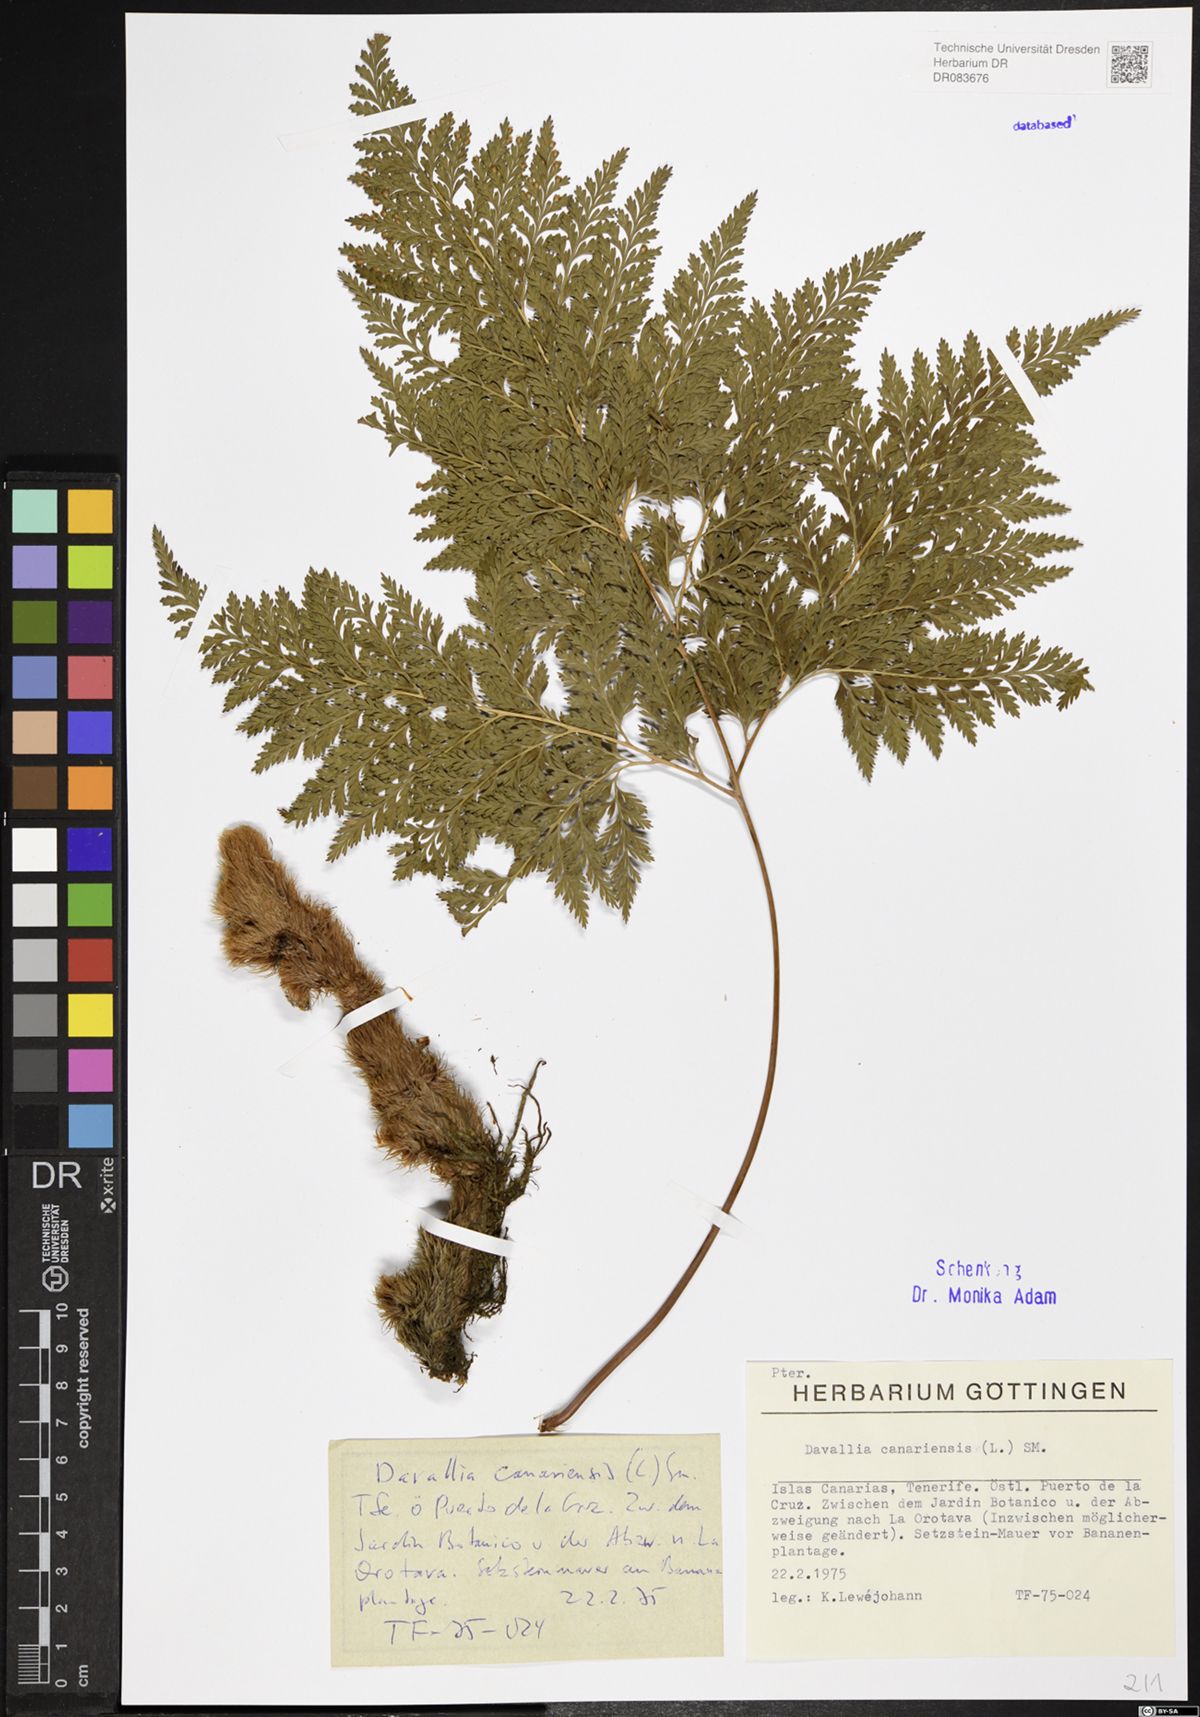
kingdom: Plantae
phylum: Tracheophyta
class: Polypodiopsida
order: Polypodiales
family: Davalliaceae
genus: Davallia
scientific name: Davallia canariensis
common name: Hare's-foot fern
